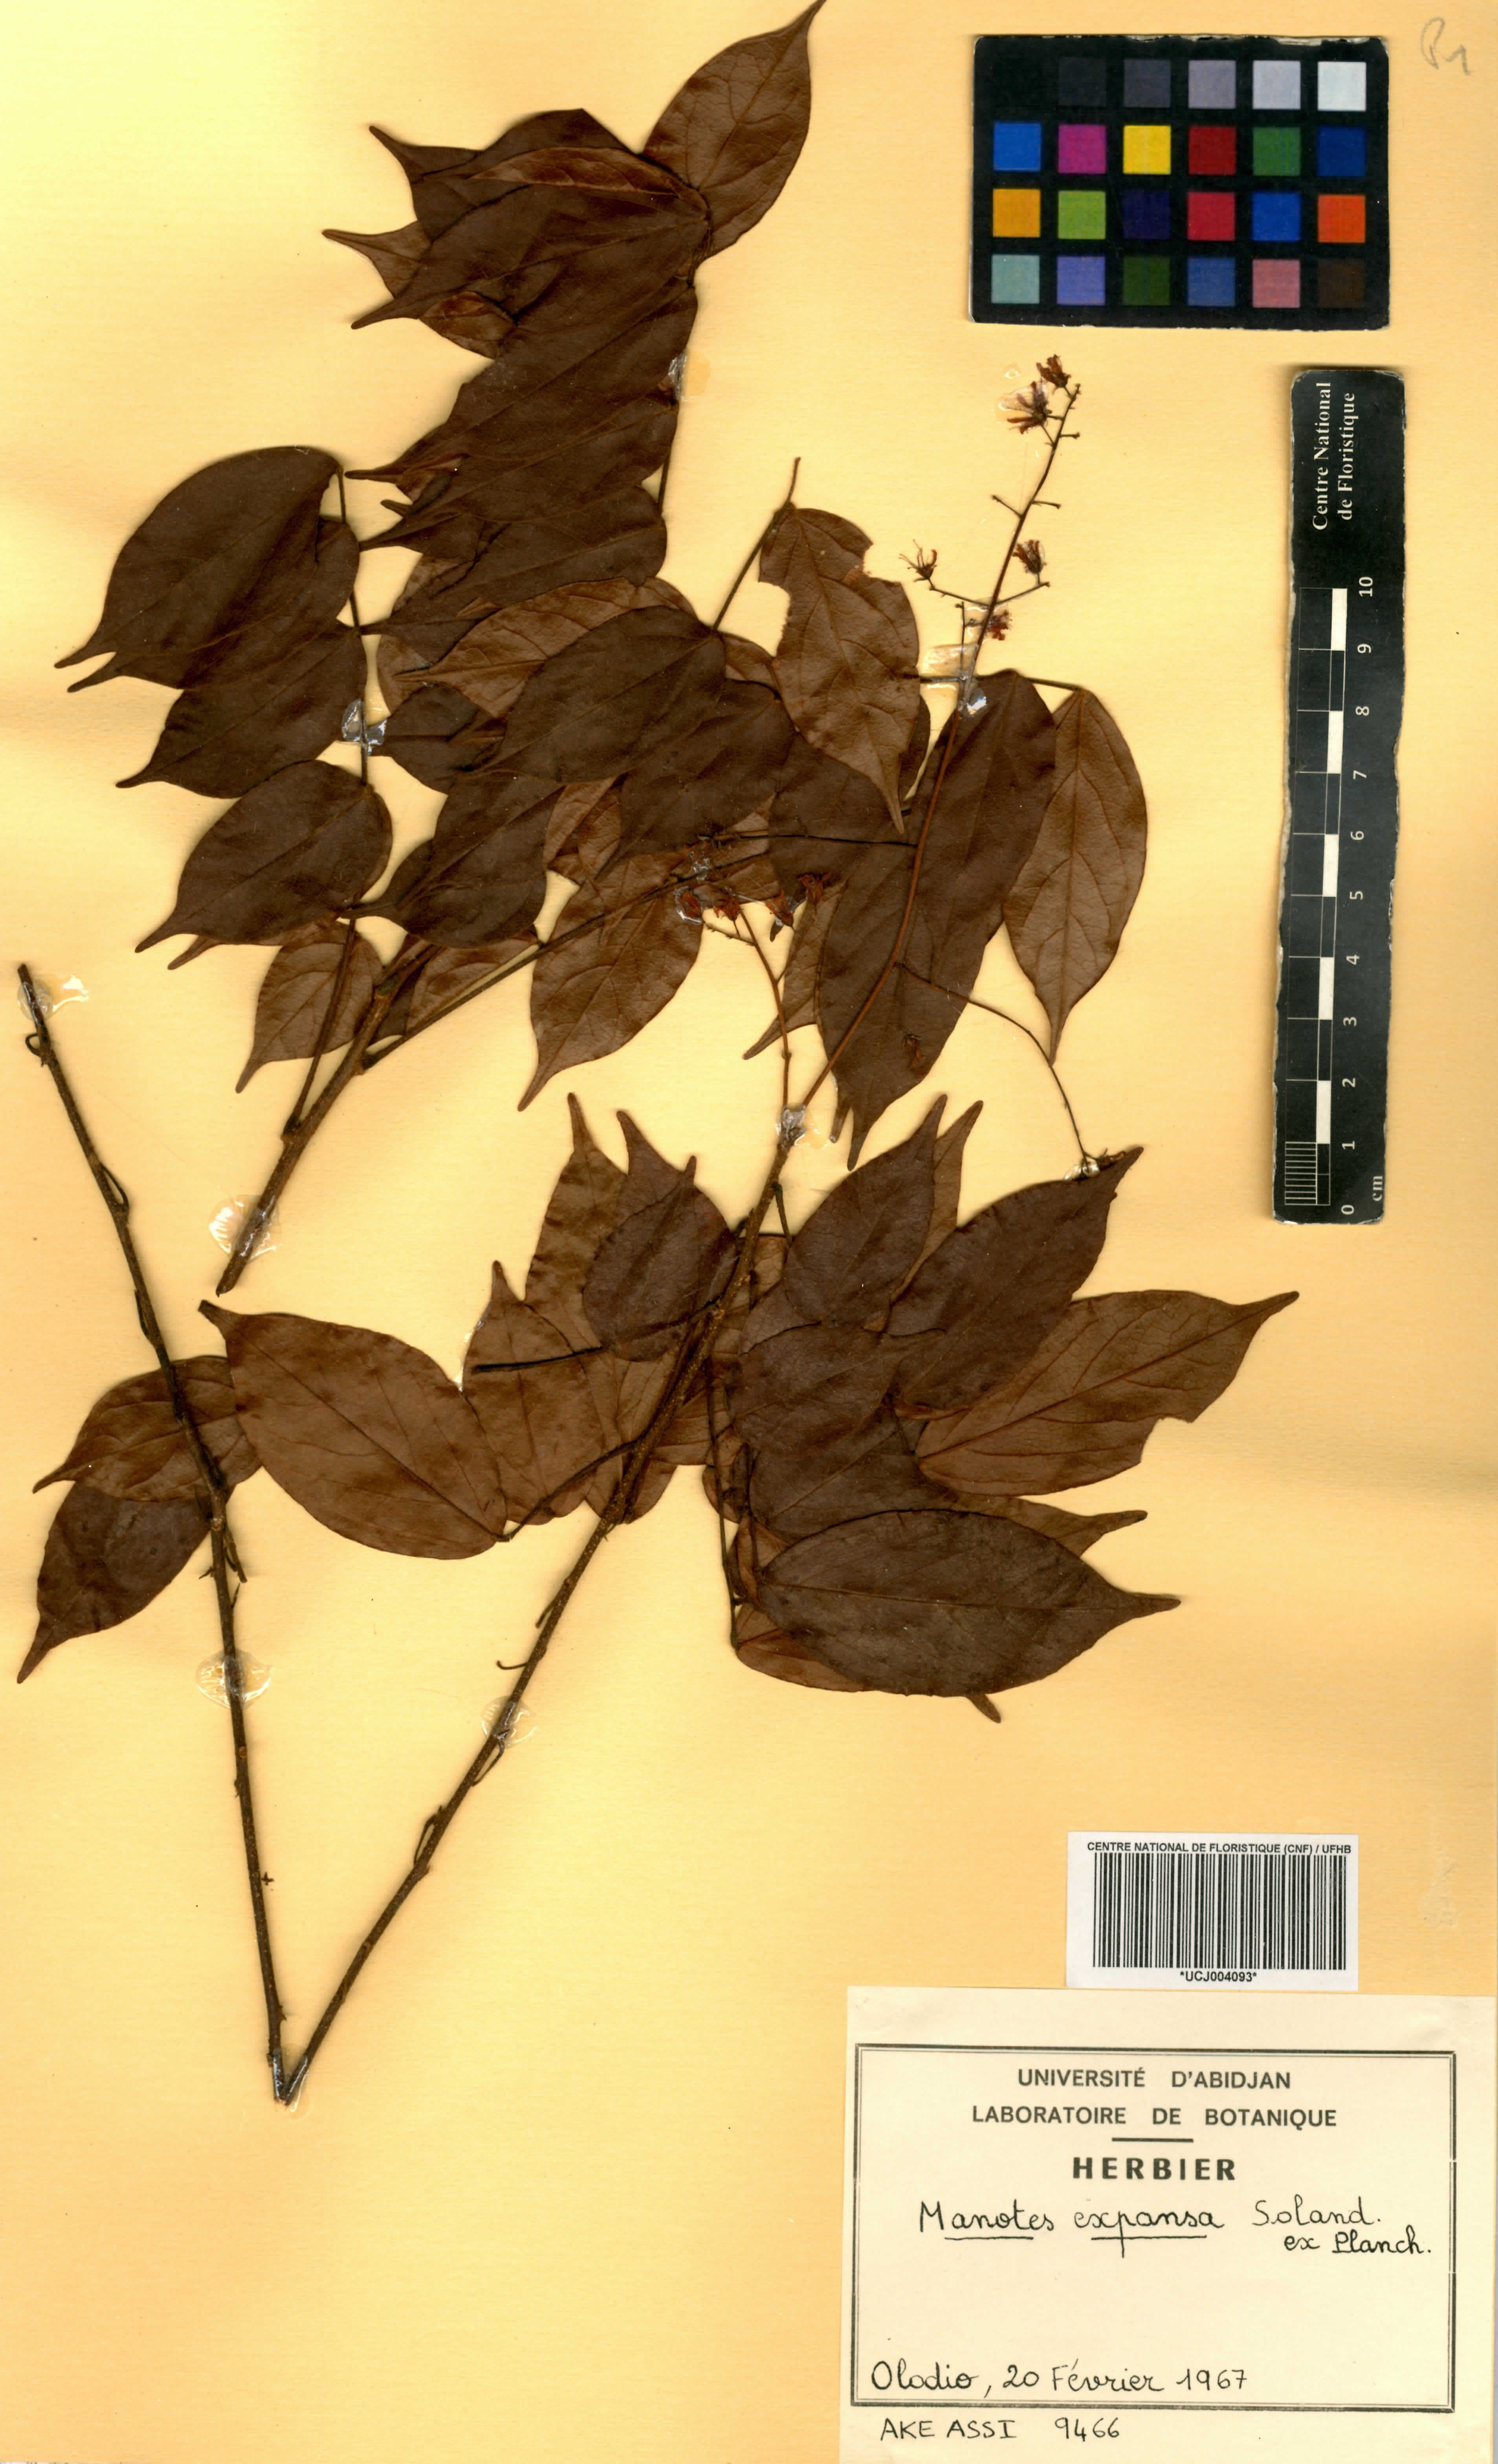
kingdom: Plantae
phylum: Tracheophyta
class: Magnoliopsida
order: Oxalidales
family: Connaraceae
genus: Manotes
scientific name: Manotes expansa
